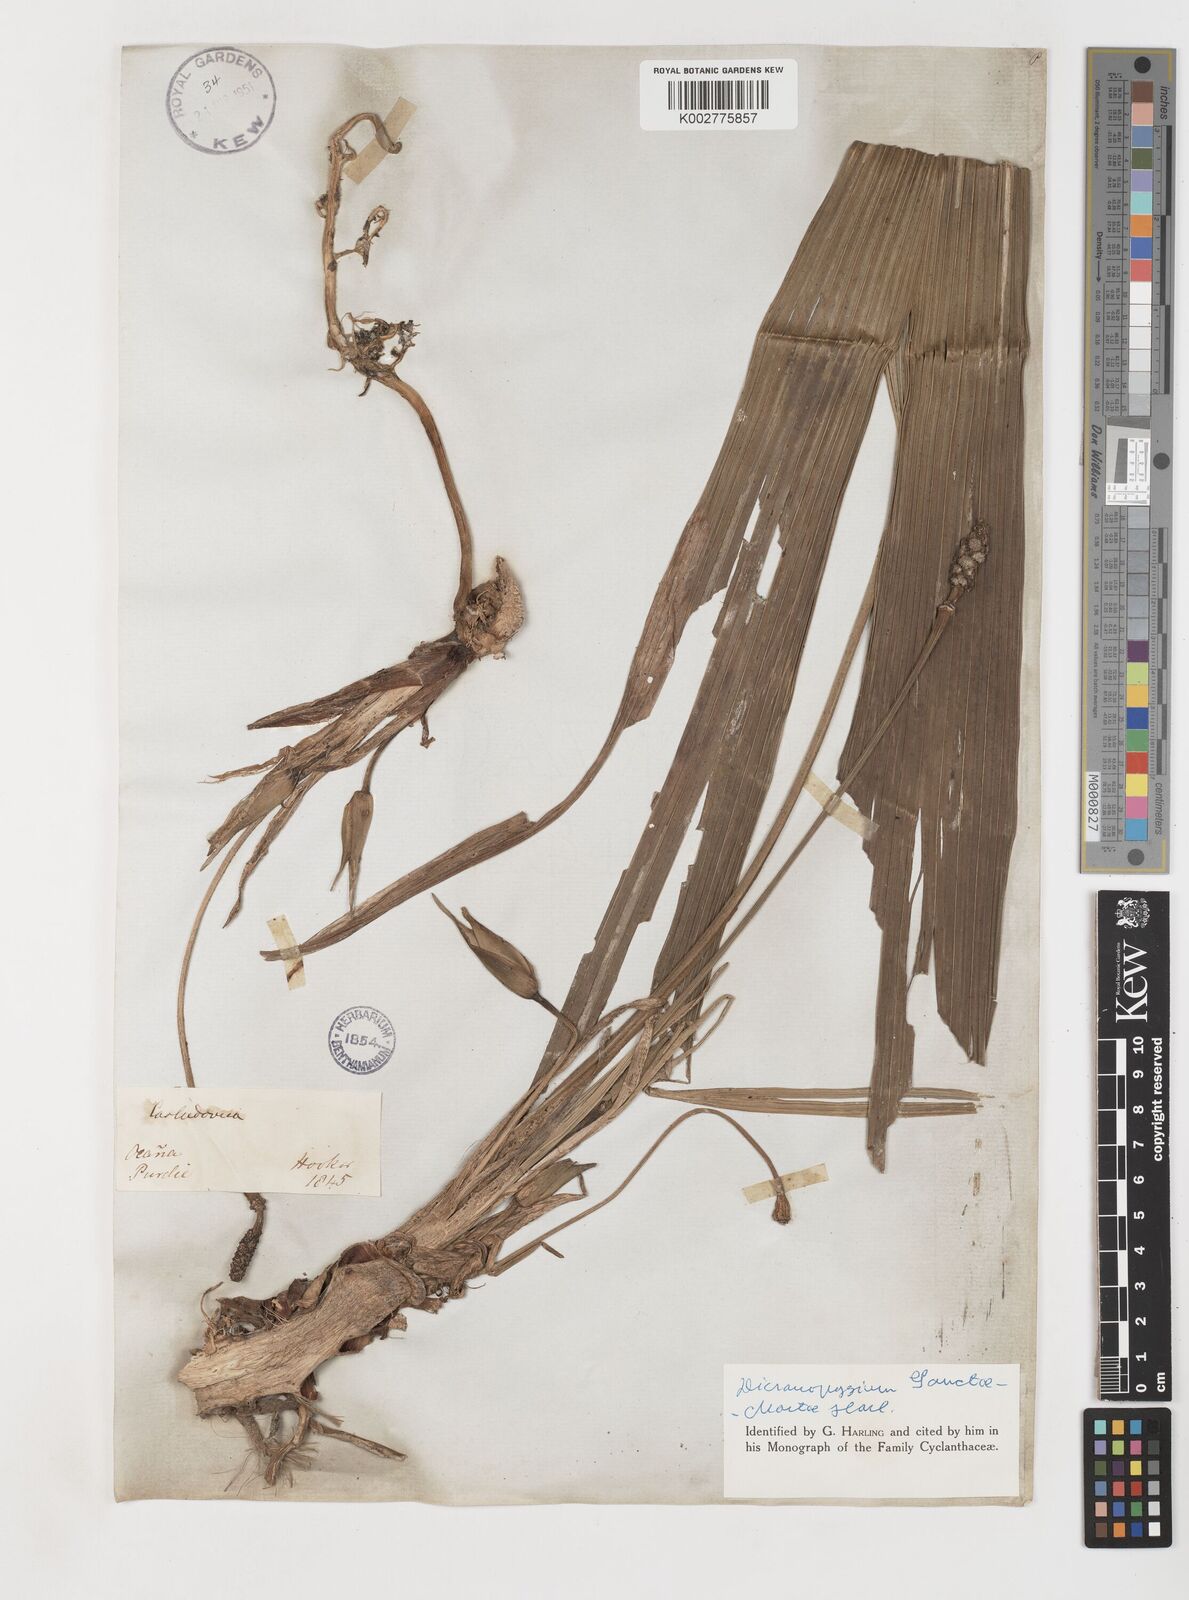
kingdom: Plantae
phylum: Tracheophyta
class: Liliopsida
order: Pandanales
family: Cyclanthaceae
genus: Dicranopygium
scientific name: Dicranopygium sanctae-martae
